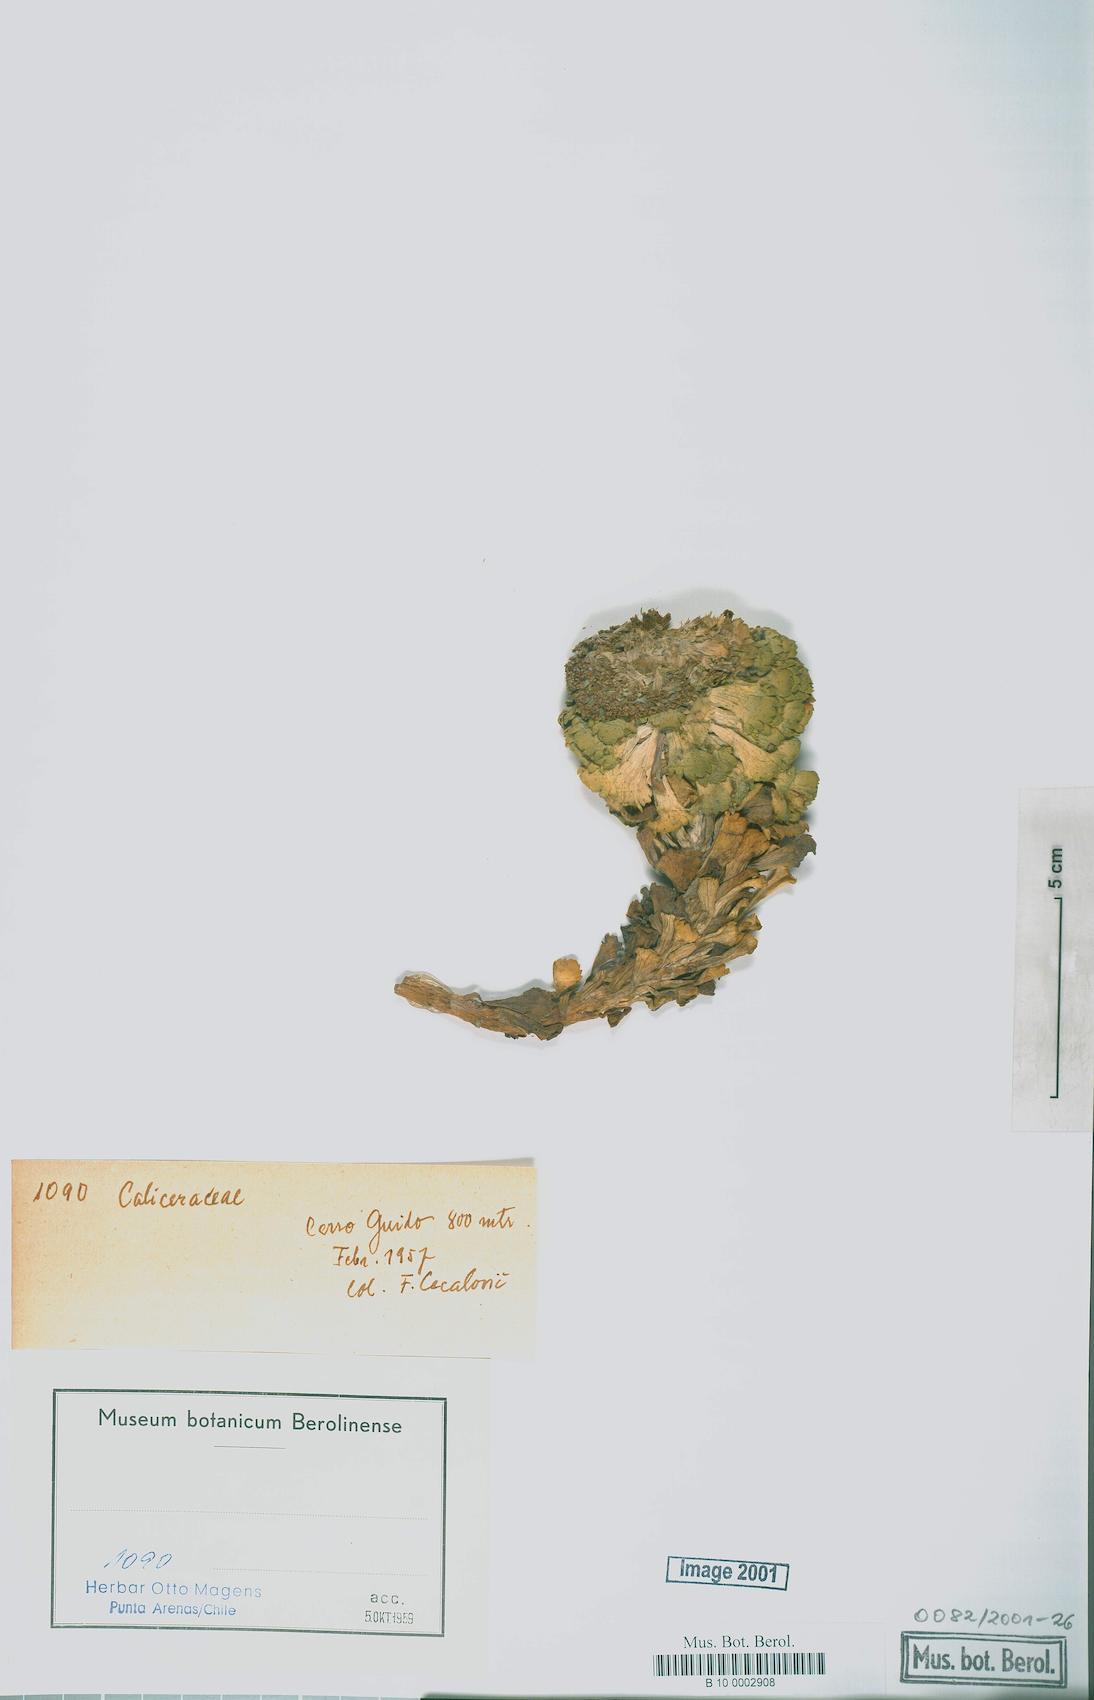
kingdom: Plantae
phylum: Tracheophyta
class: Magnoliopsida
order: Asterales
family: Calyceraceae
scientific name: Calyceraceae
